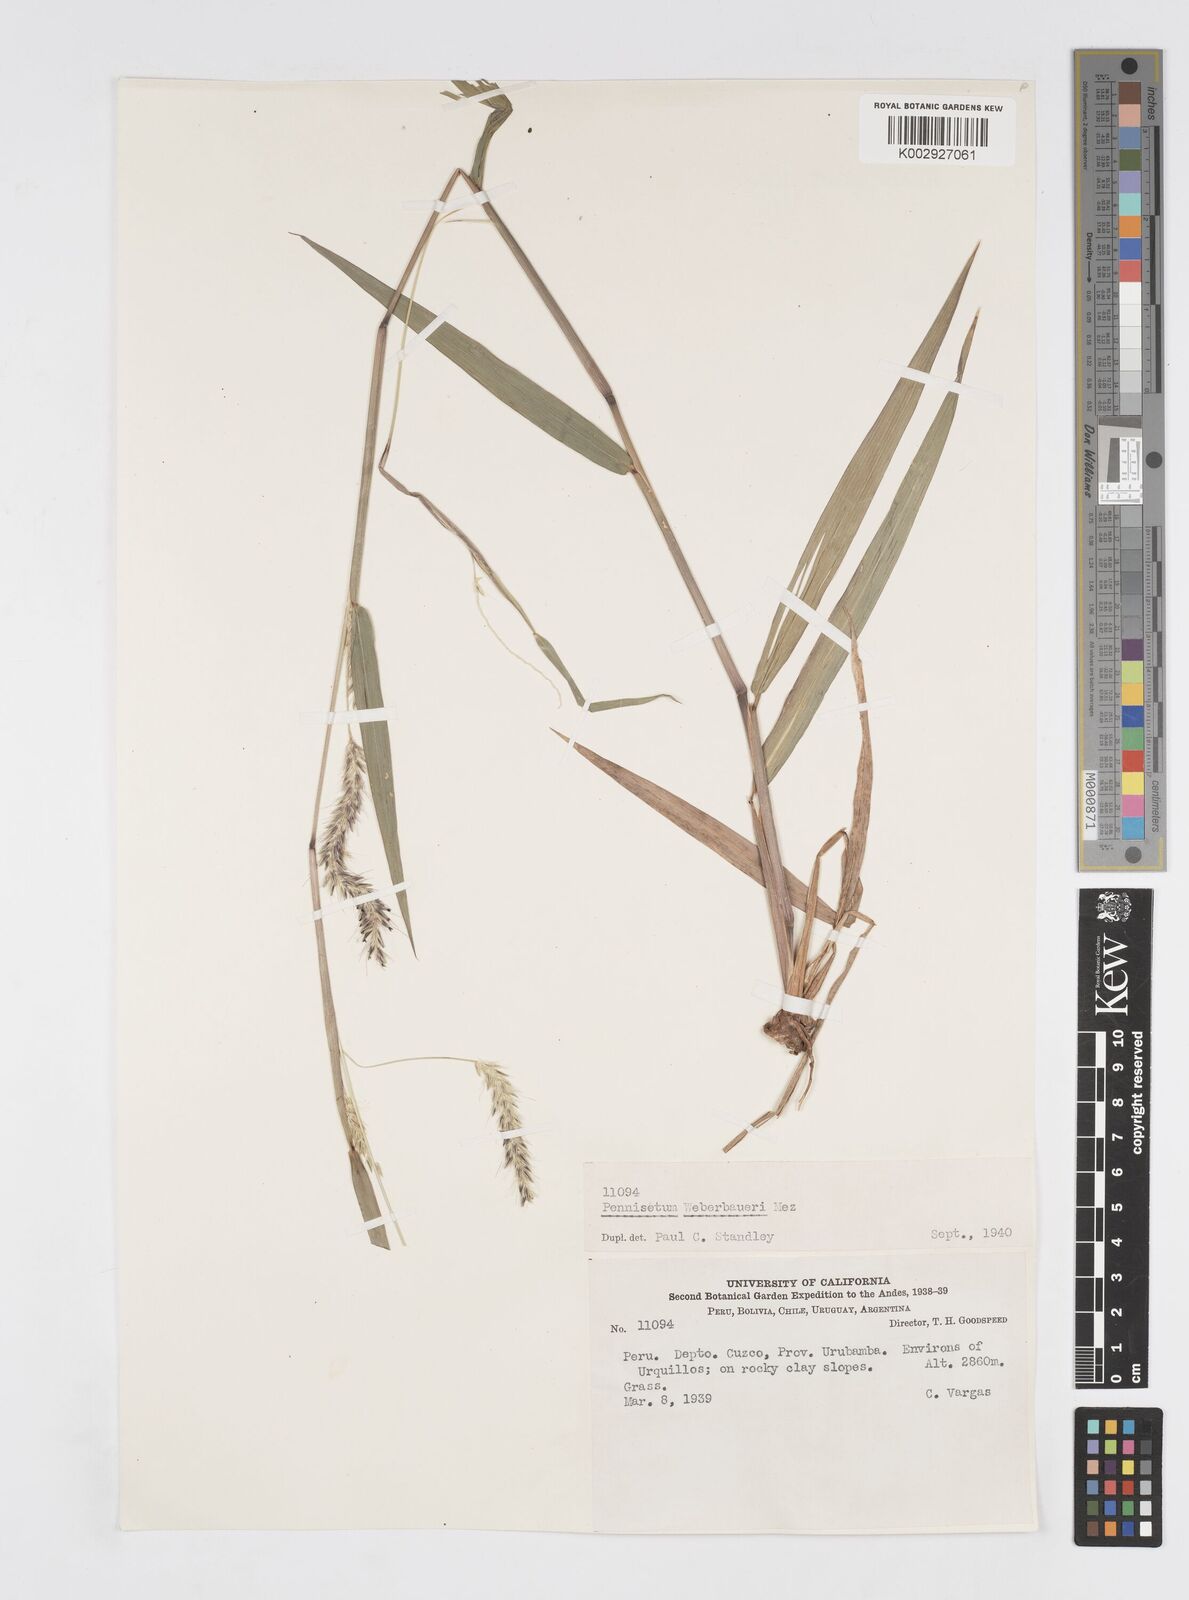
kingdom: Plantae
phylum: Tracheophyta
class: Liliopsida
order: Poales
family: Poaceae
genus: Cenchrus
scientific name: Cenchrus weberbaueri
